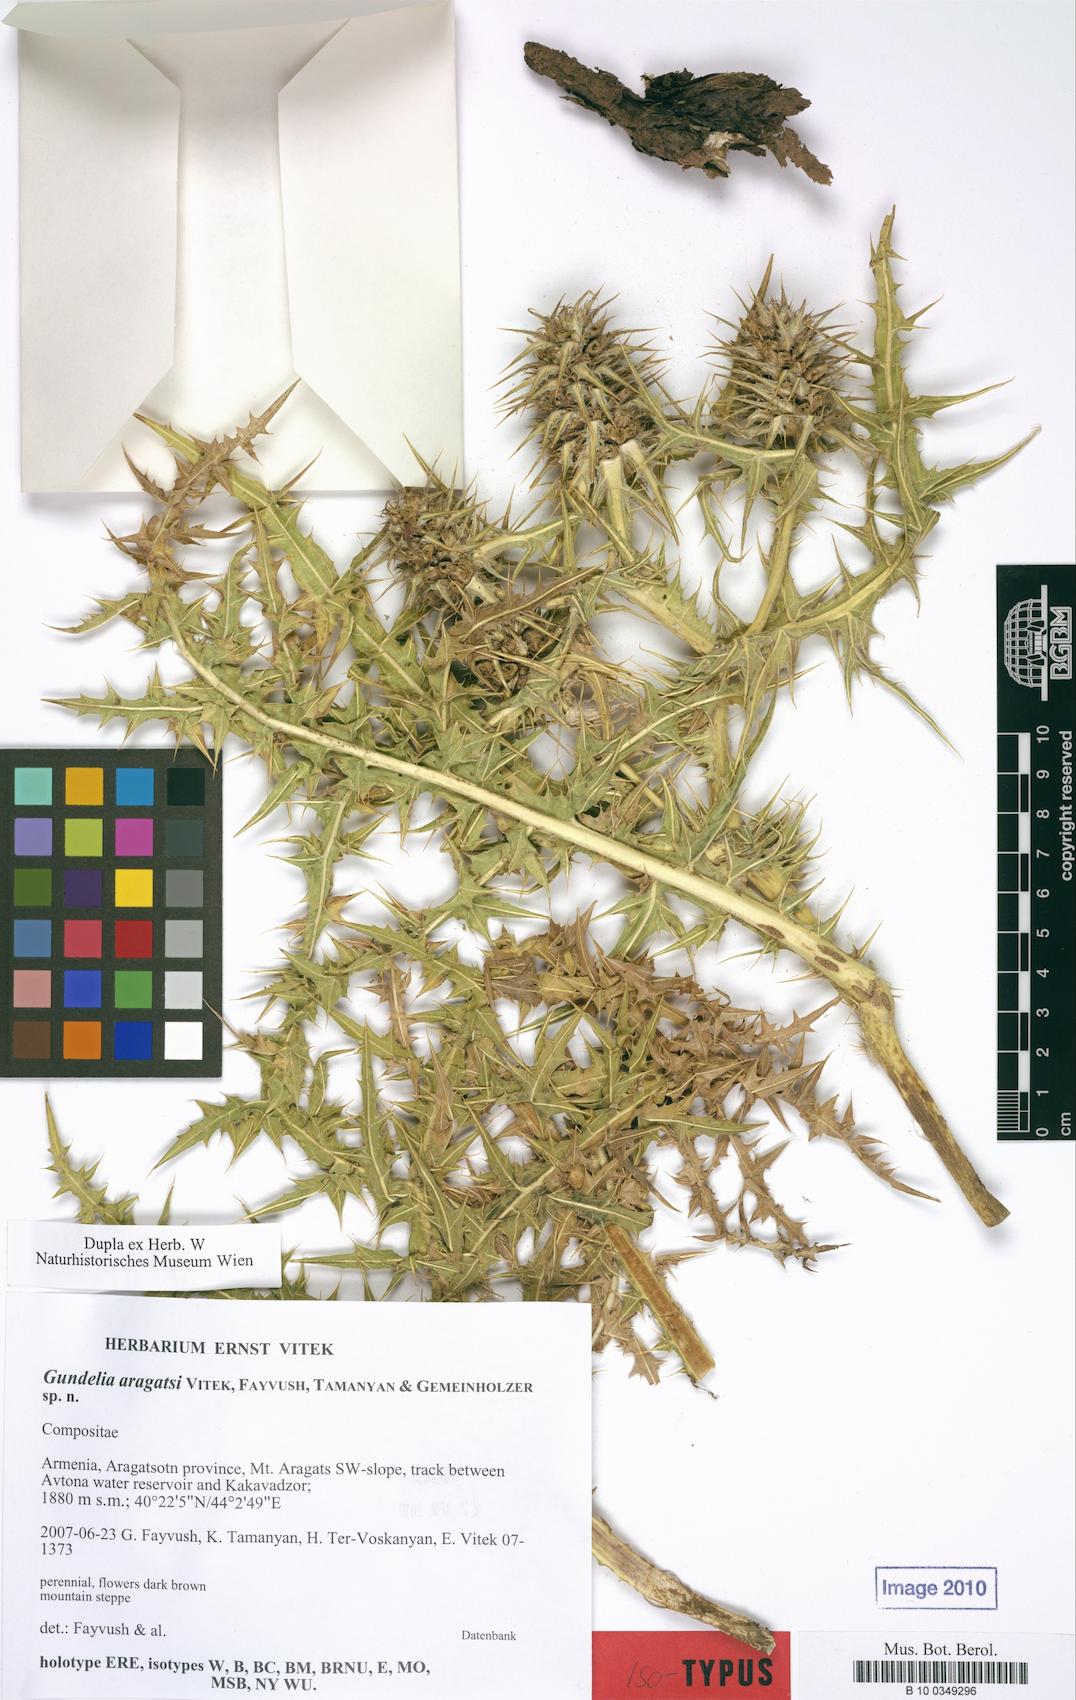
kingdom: Plantae
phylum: Tracheophyta
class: Magnoliopsida
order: Asterales
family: Asteraceae
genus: Gundelia
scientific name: Gundelia aragatsi
